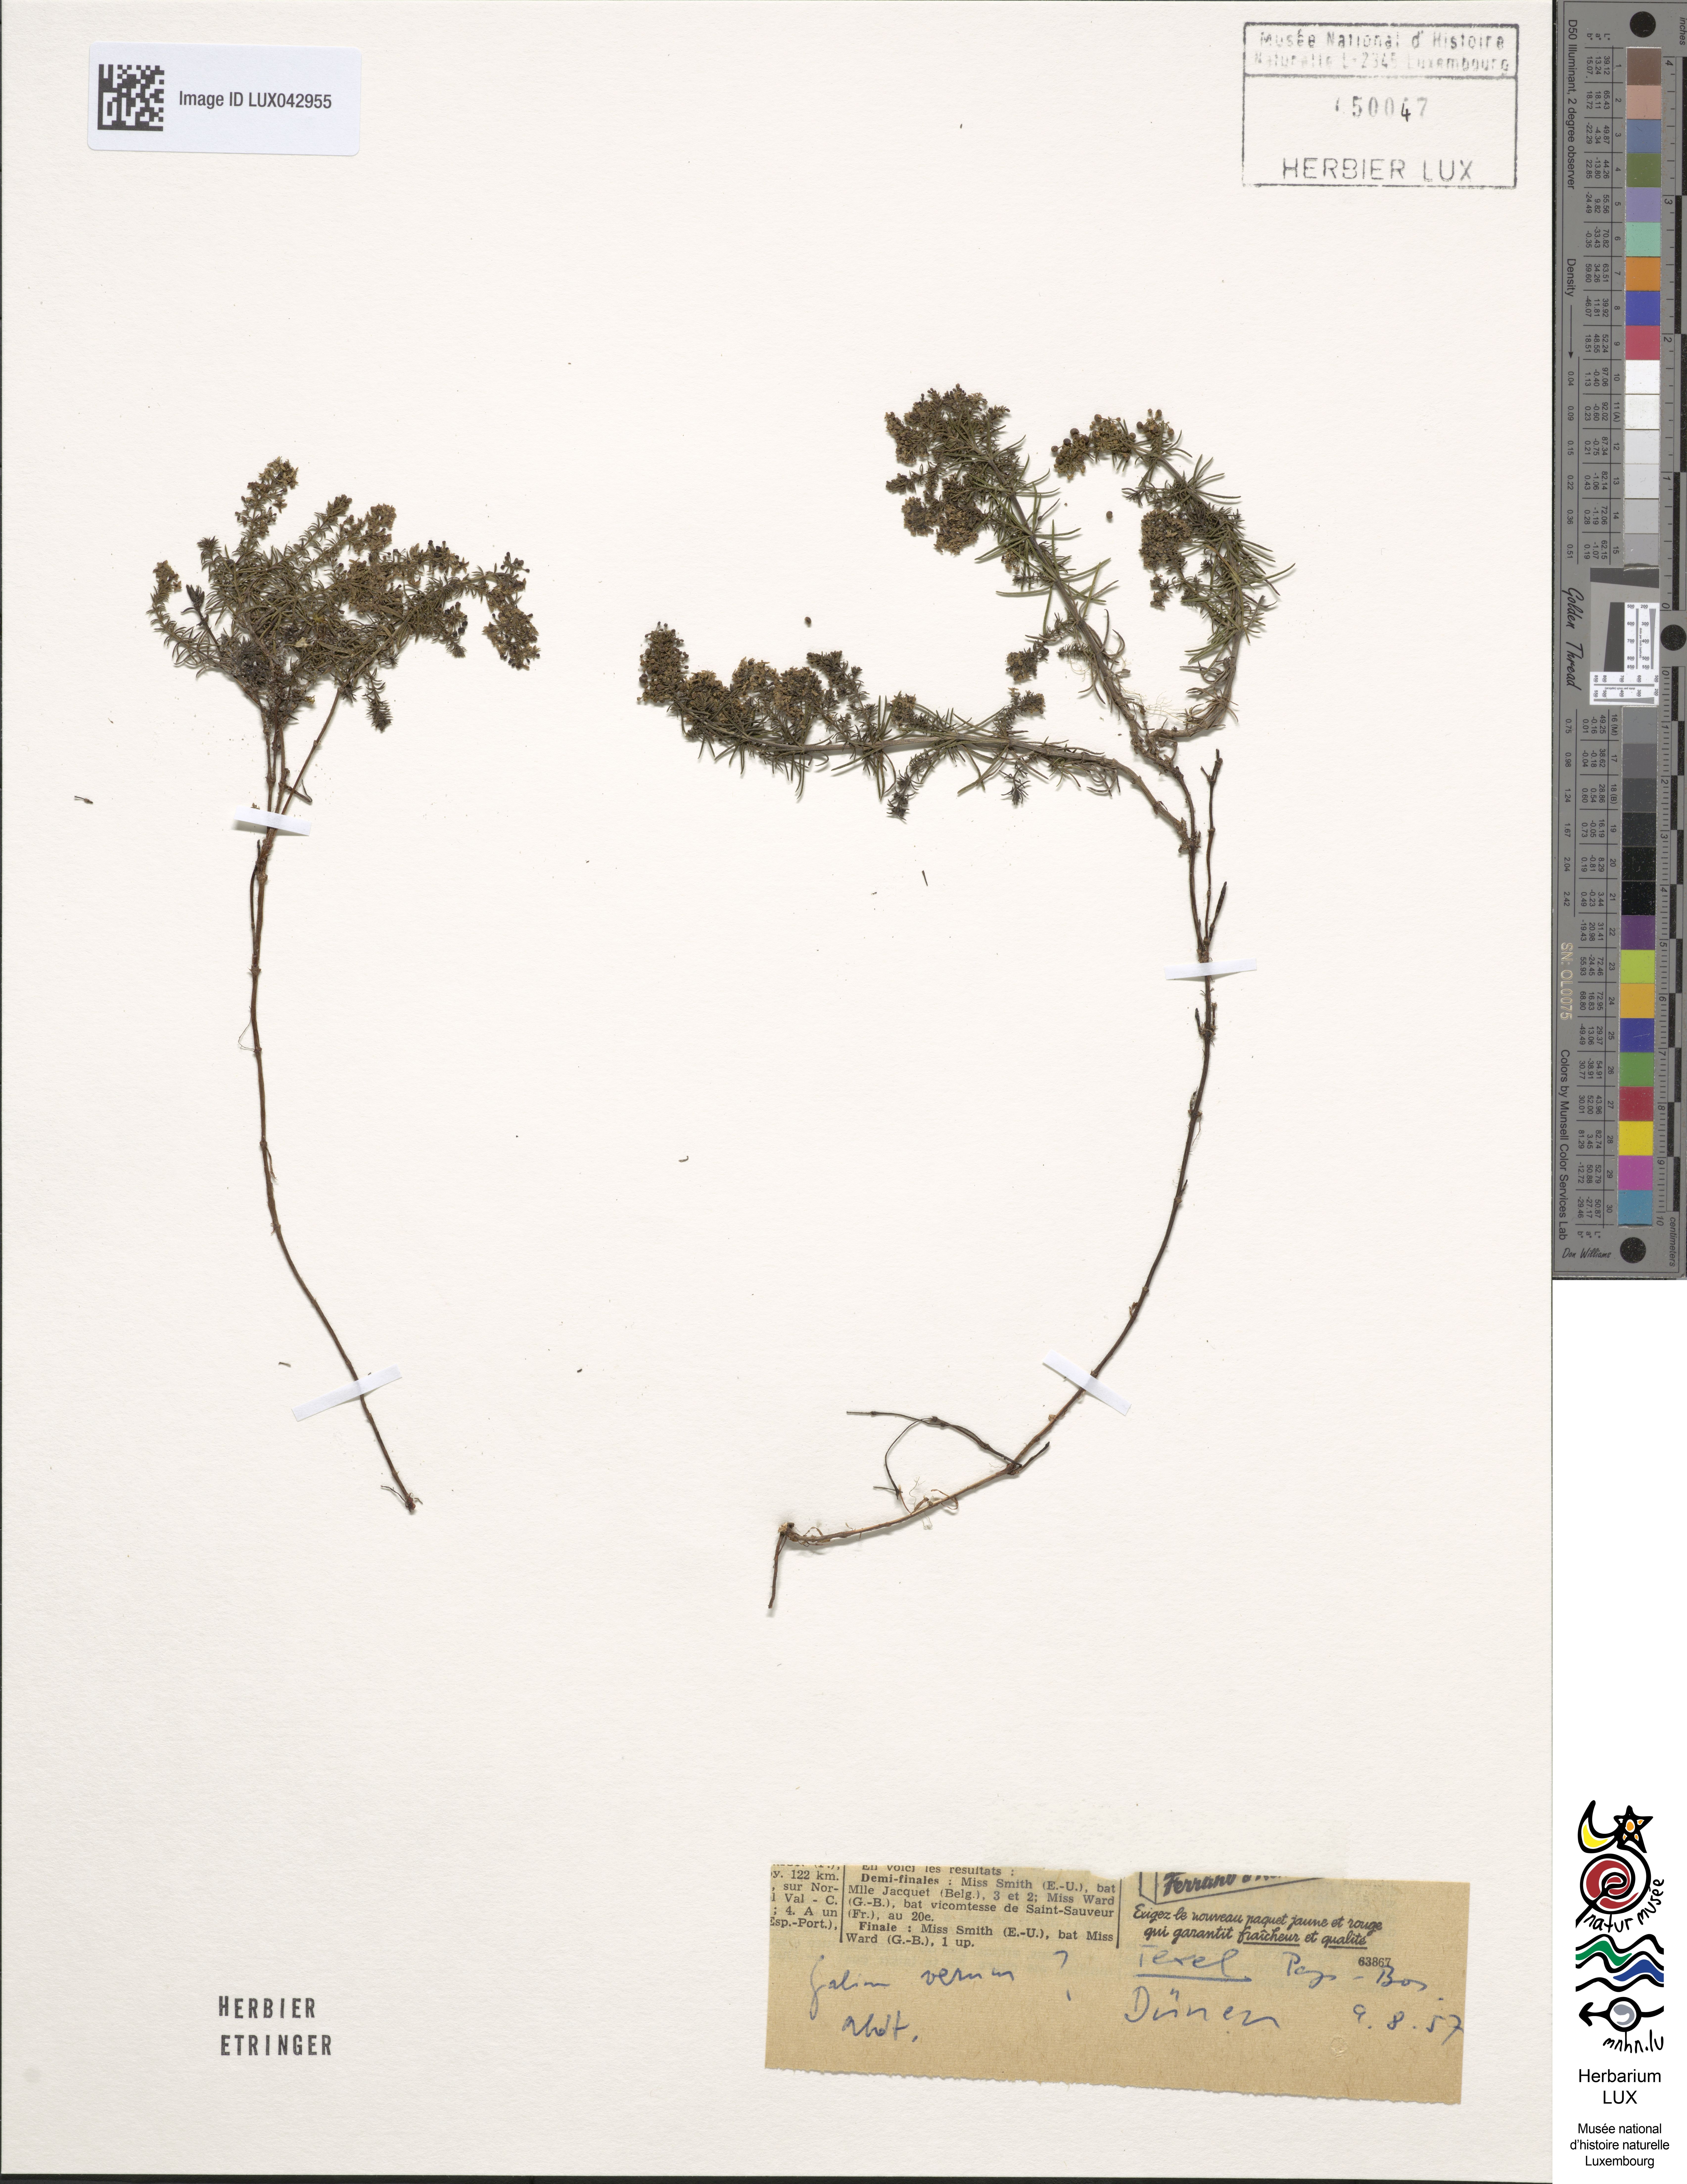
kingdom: Plantae
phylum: Tracheophyta
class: Magnoliopsida
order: Gentianales
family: Rubiaceae
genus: Galium
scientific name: Galium verum
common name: Lady's bedstraw
